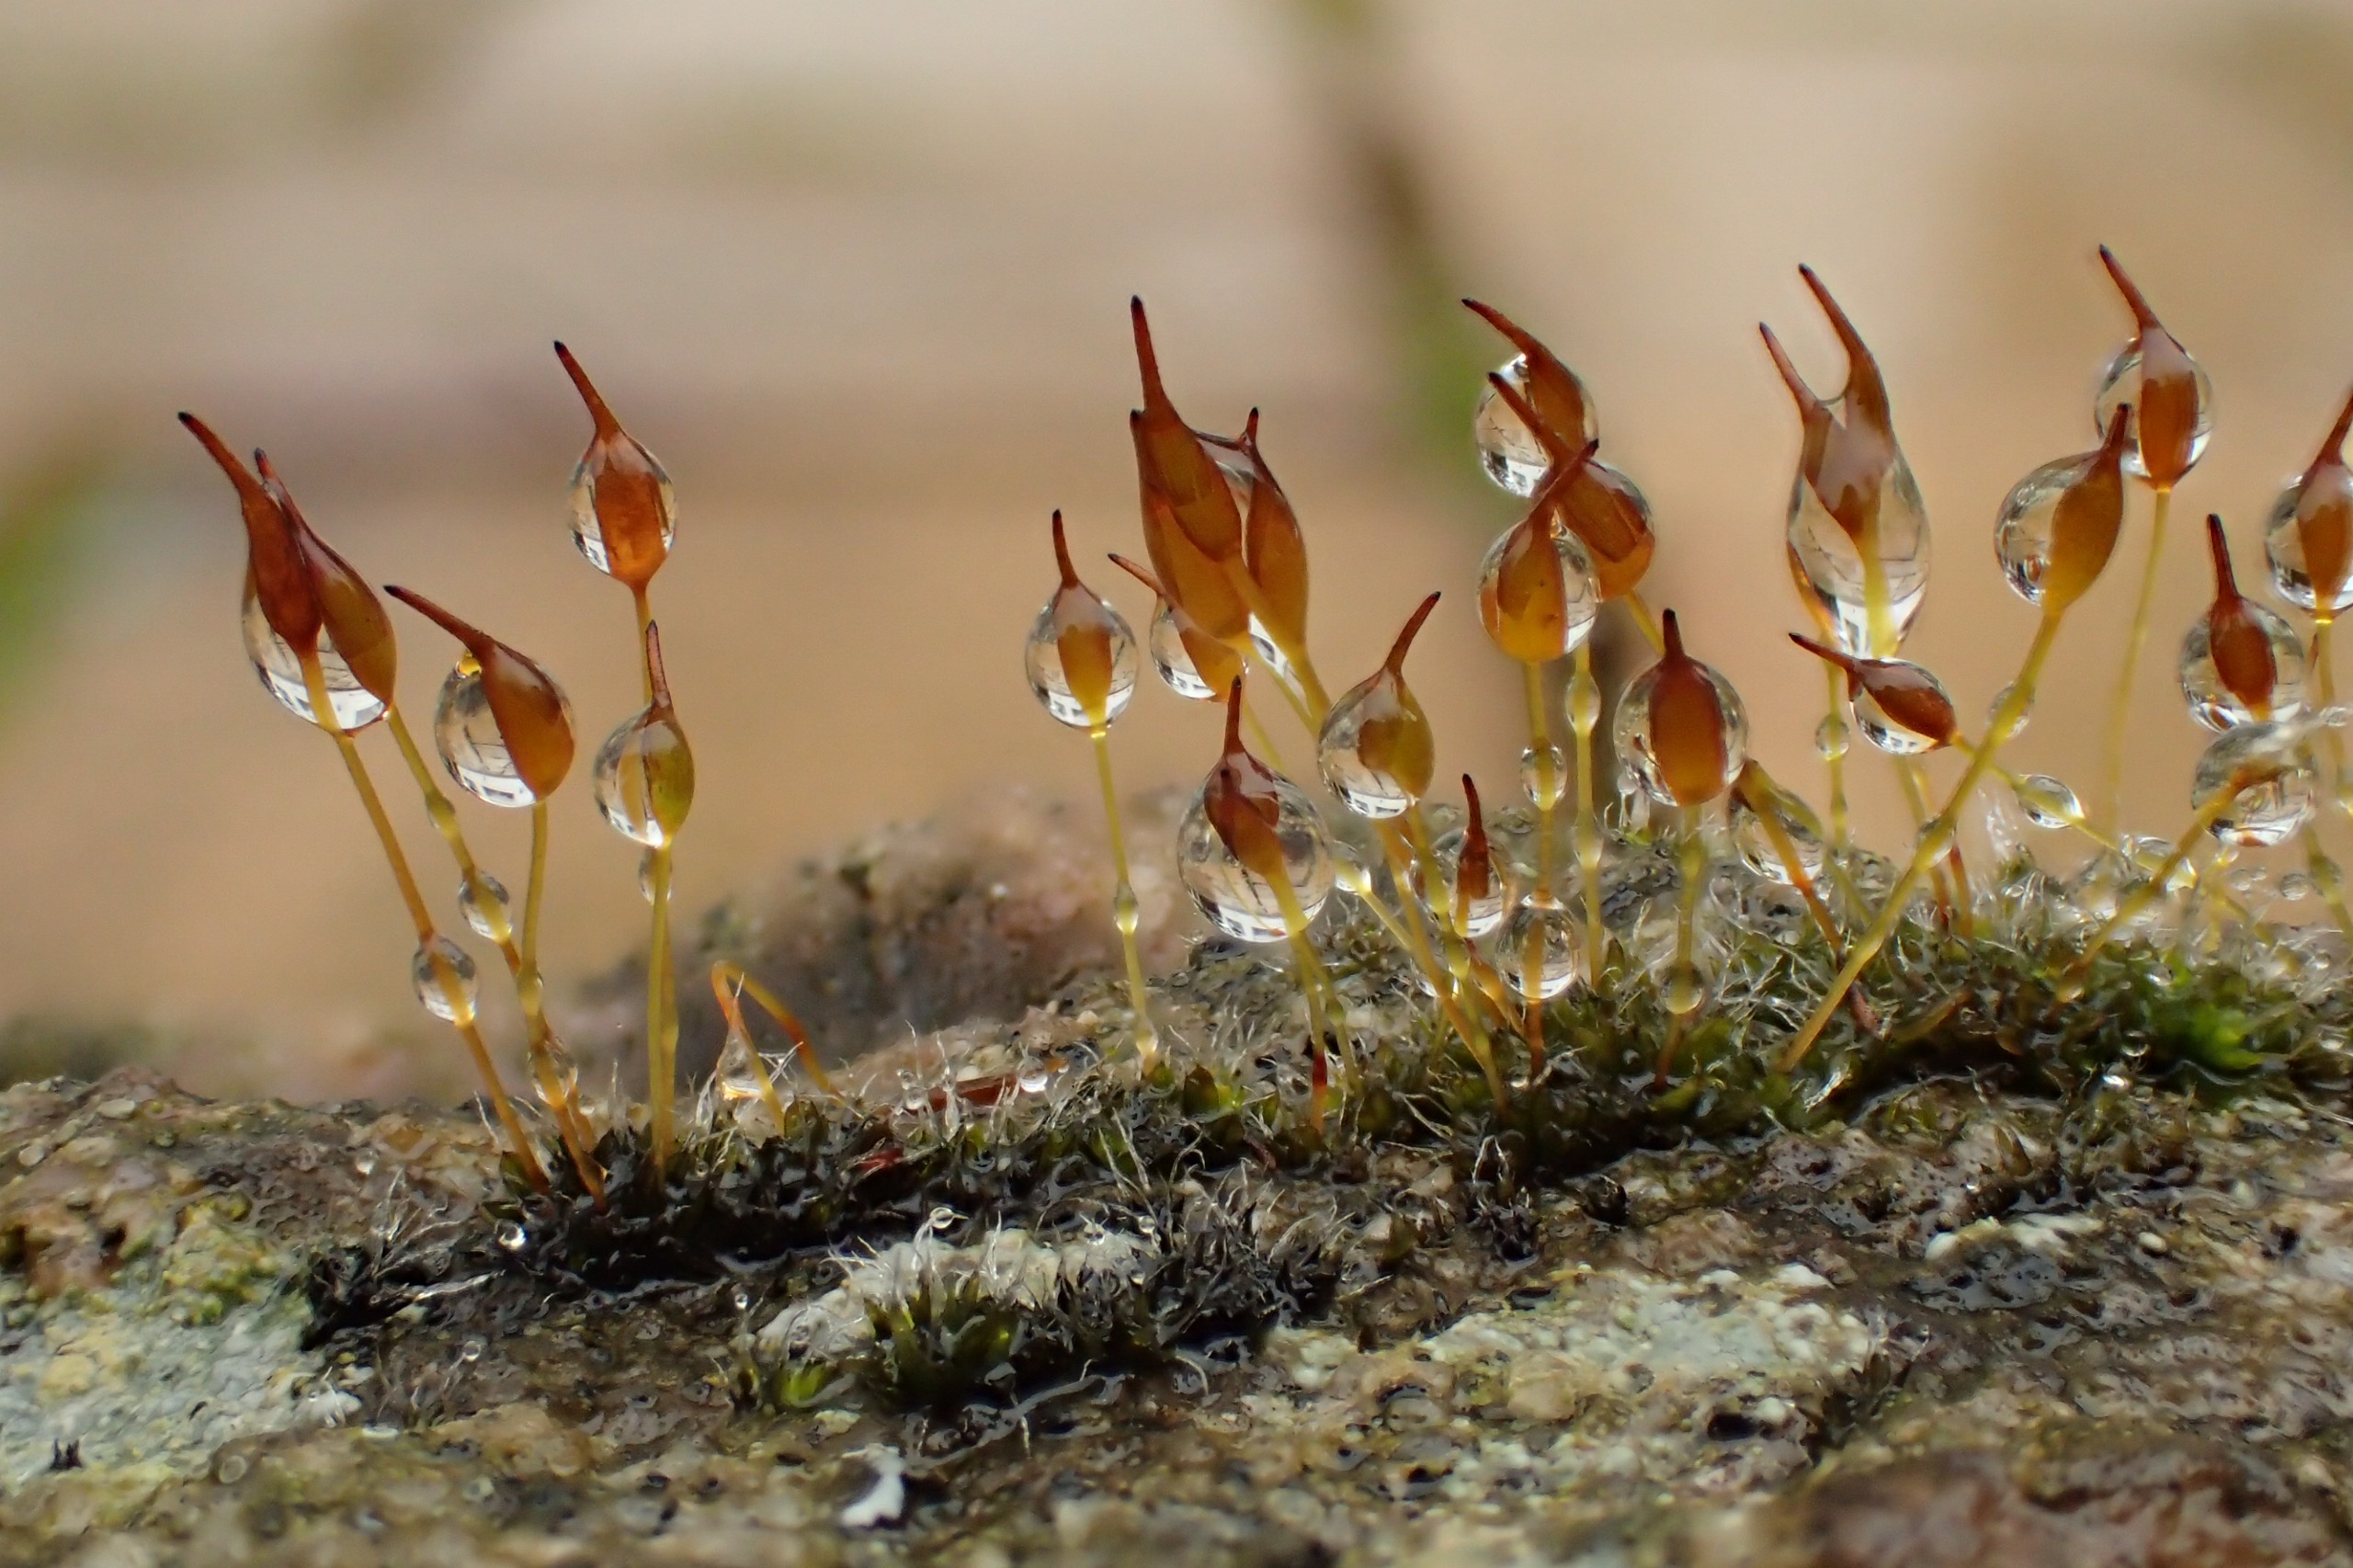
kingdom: Plantae
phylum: Bryophyta
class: Bryopsida
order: Pottiales
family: Pottiaceae
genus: Tortula
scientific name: Tortula muralis
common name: Mur-snotand
